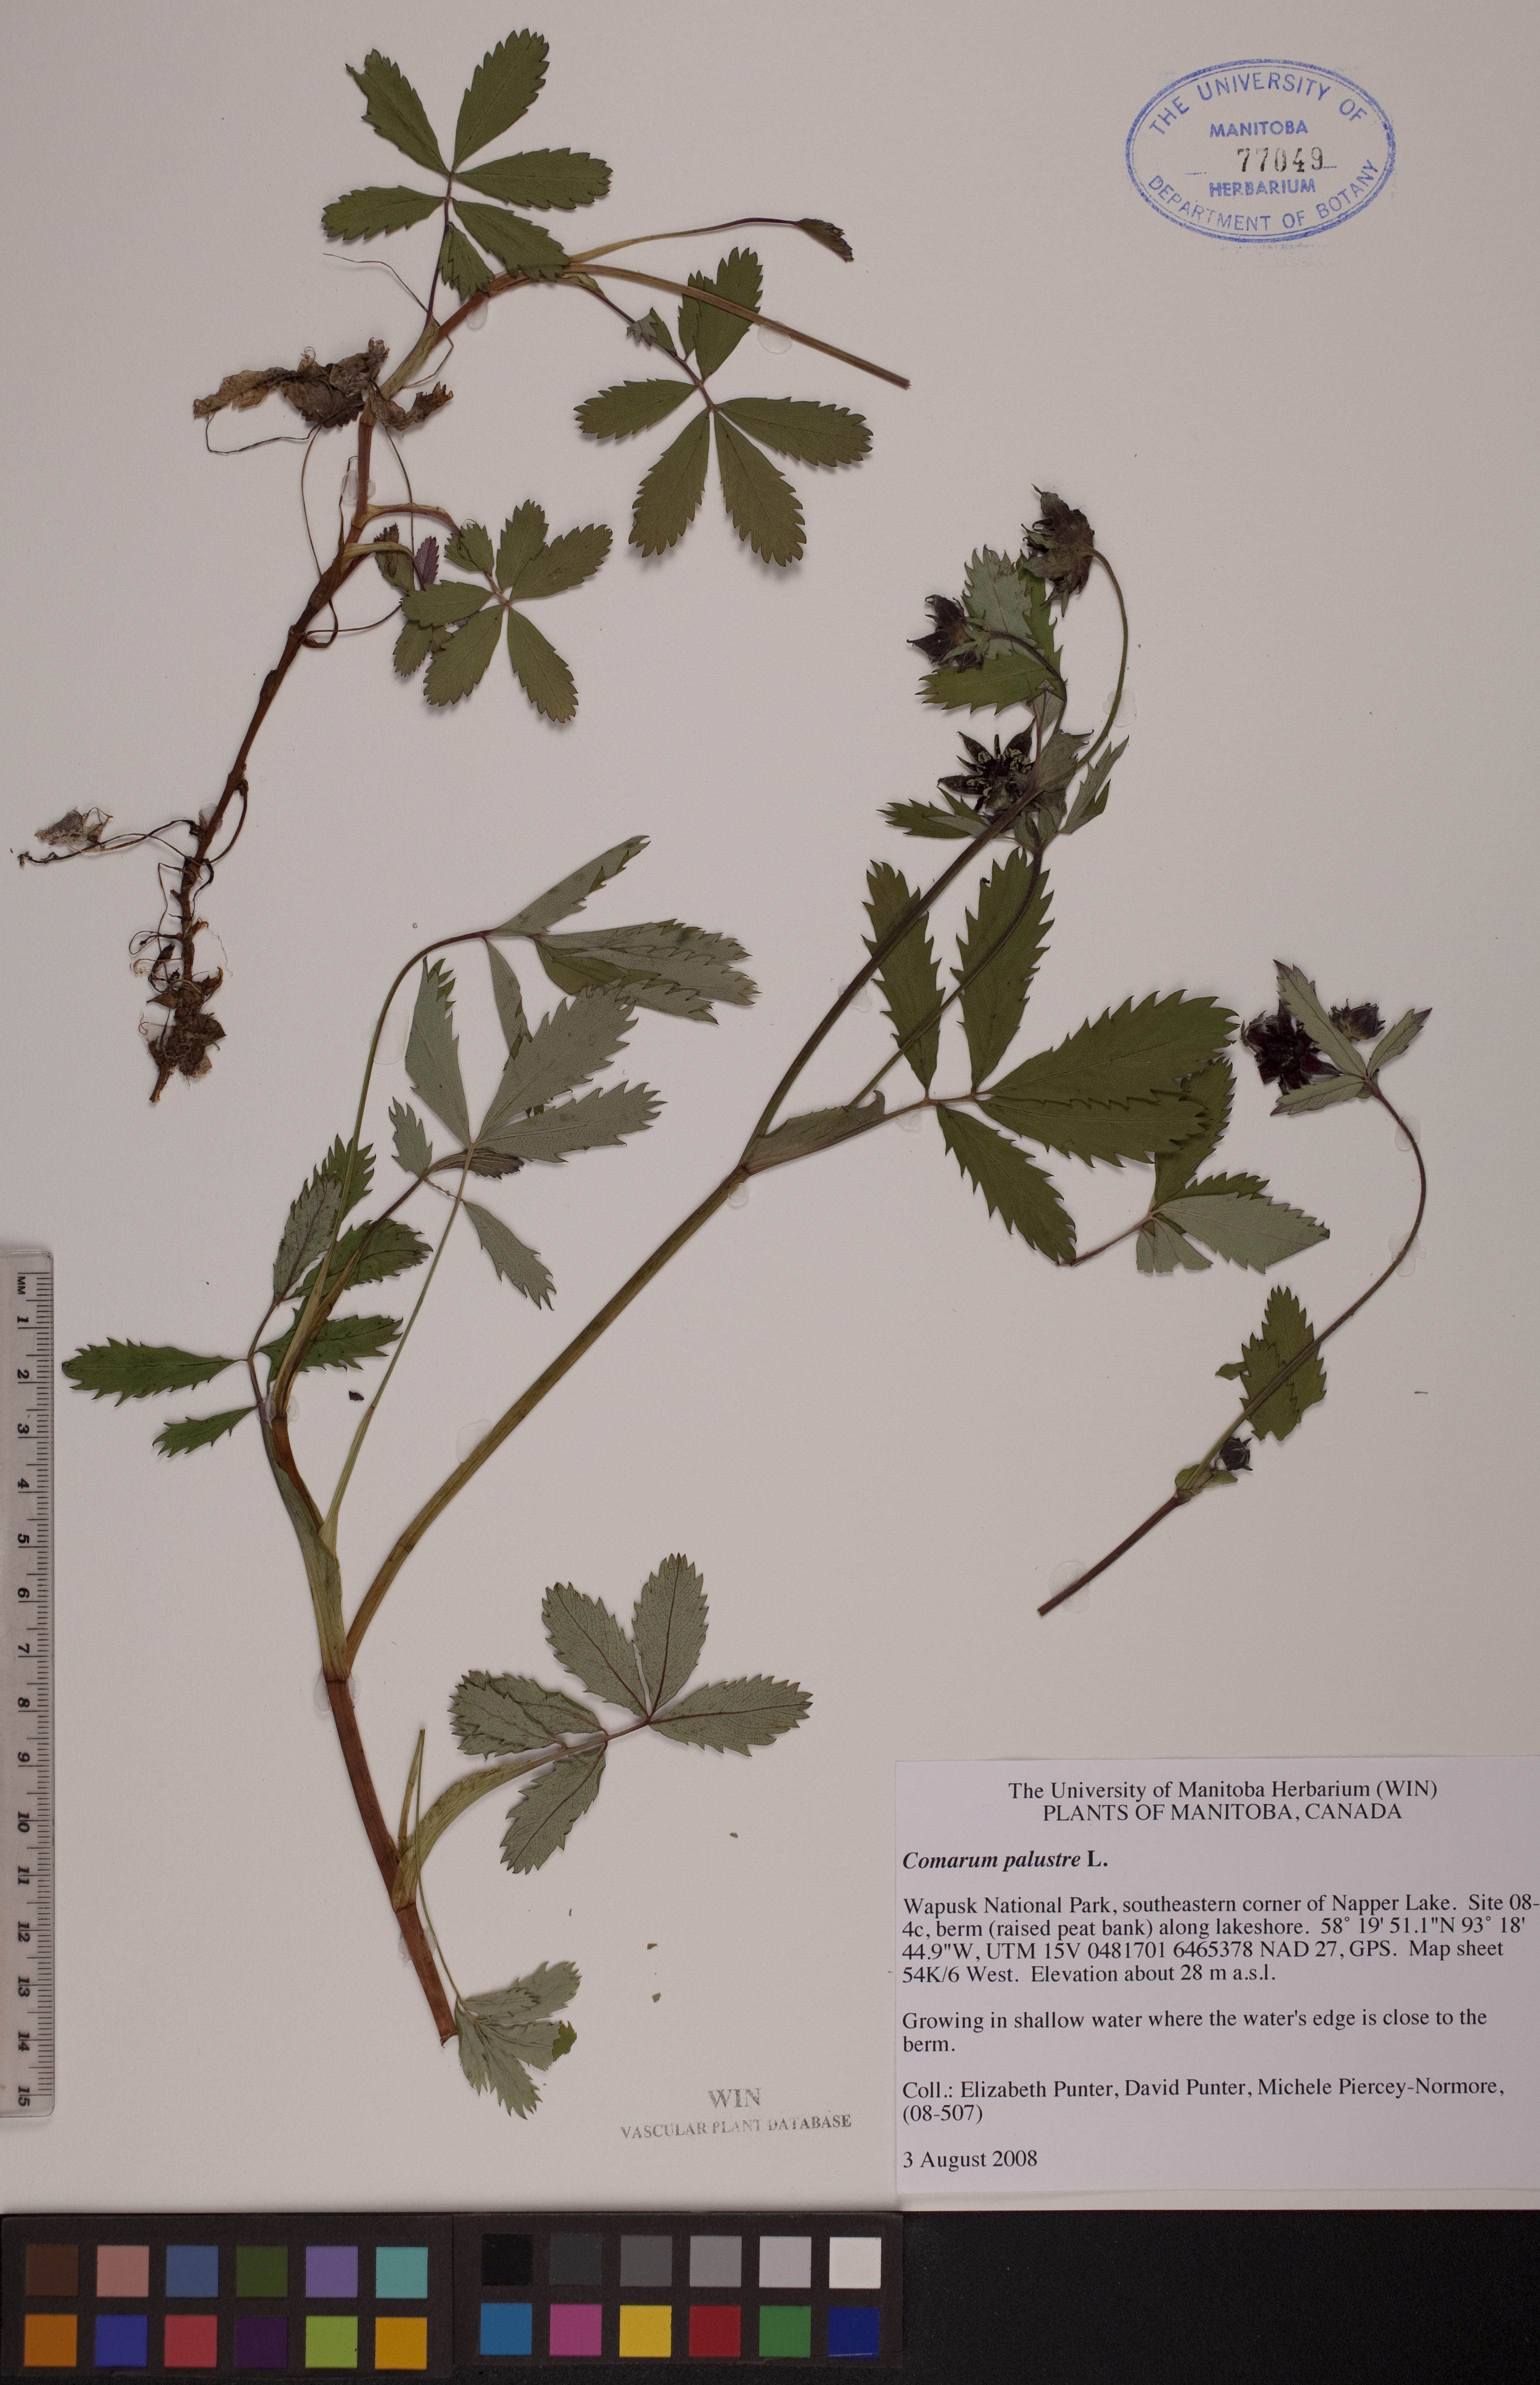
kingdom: Plantae
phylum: Tracheophyta
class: Magnoliopsida
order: Rosales
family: Rosaceae
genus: Comarum
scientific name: Comarum palustre
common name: Marsh cinquefoil
